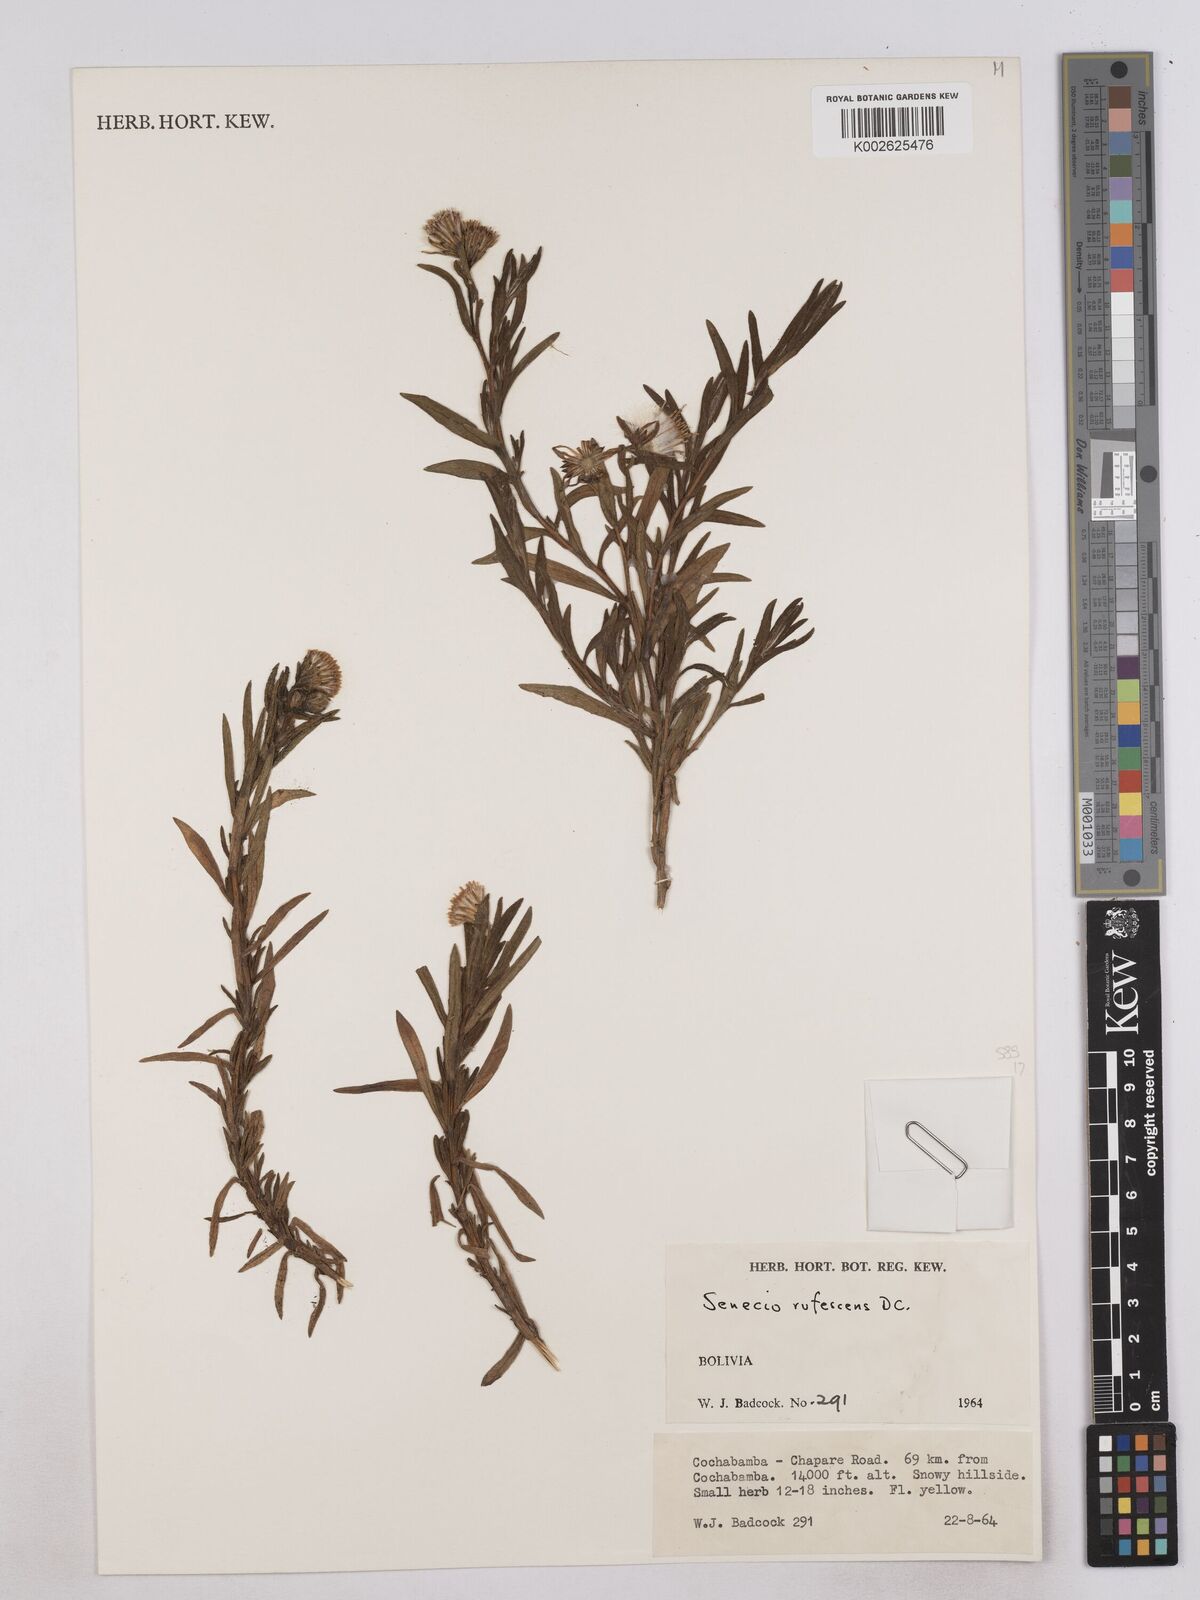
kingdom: Plantae
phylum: Tracheophyta
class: Magnoliopsida
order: Asterales
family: Asteraceae
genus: Senecio
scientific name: Senecio
